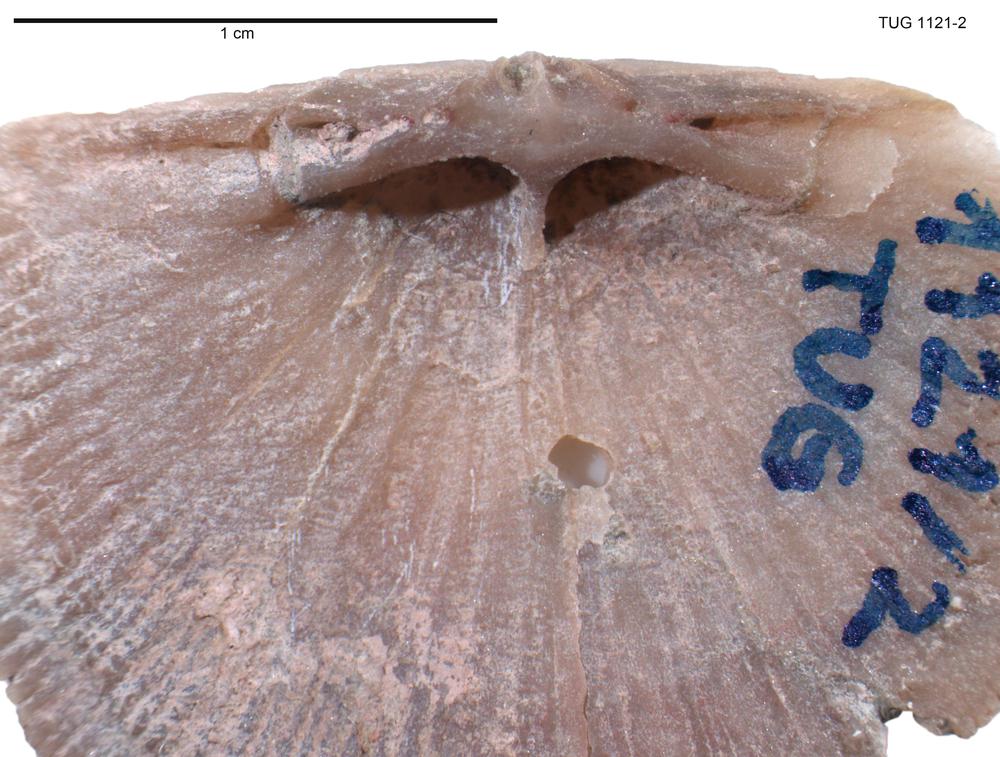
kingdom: Animalia
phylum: Brachiopoda
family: Gonambonitidae
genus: Gonambonites
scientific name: Gonambonites plana
